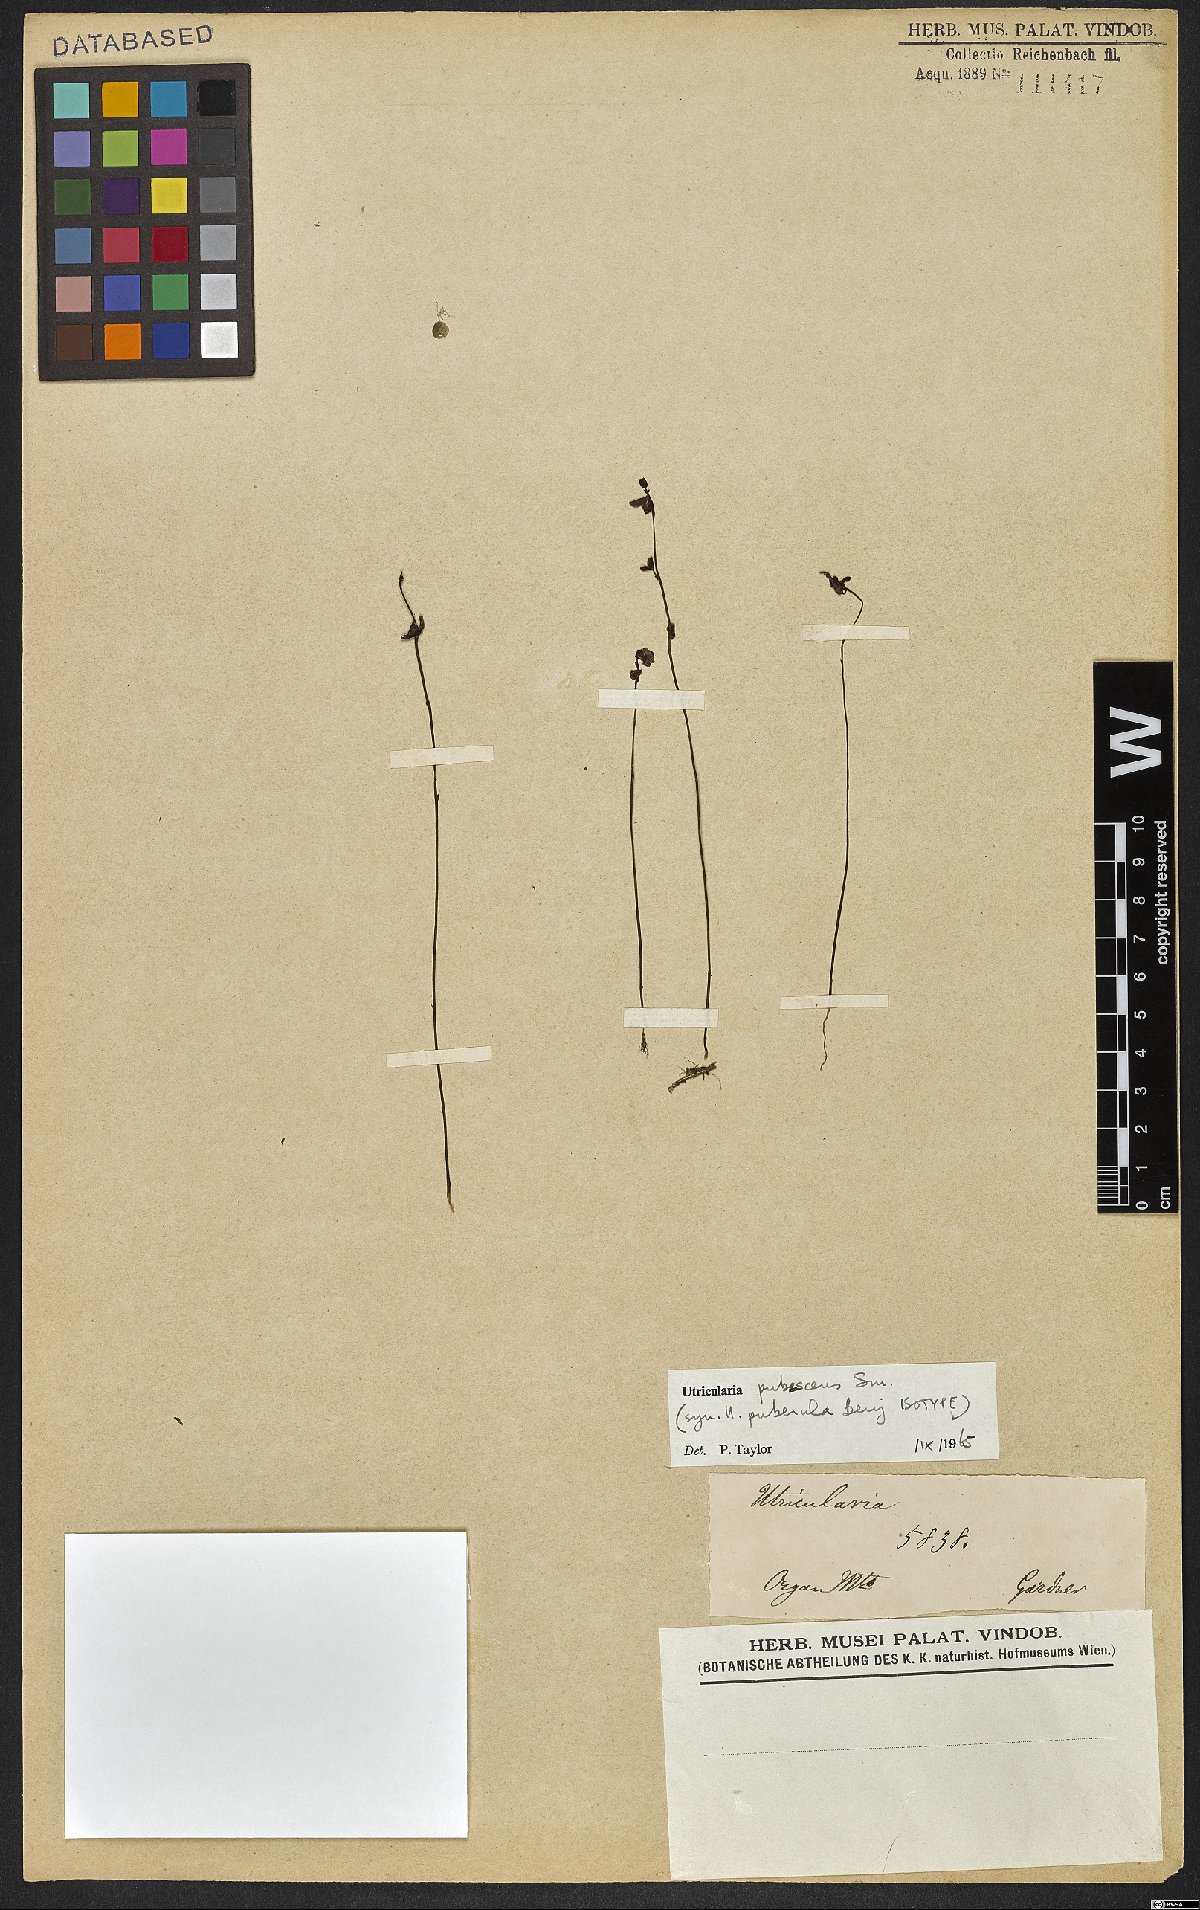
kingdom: Plantae
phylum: Tracheophyta
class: Magnoliopsida
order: Lamiales
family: Lentibulariaceae
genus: Utricularia
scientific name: Utricularia pubescens
